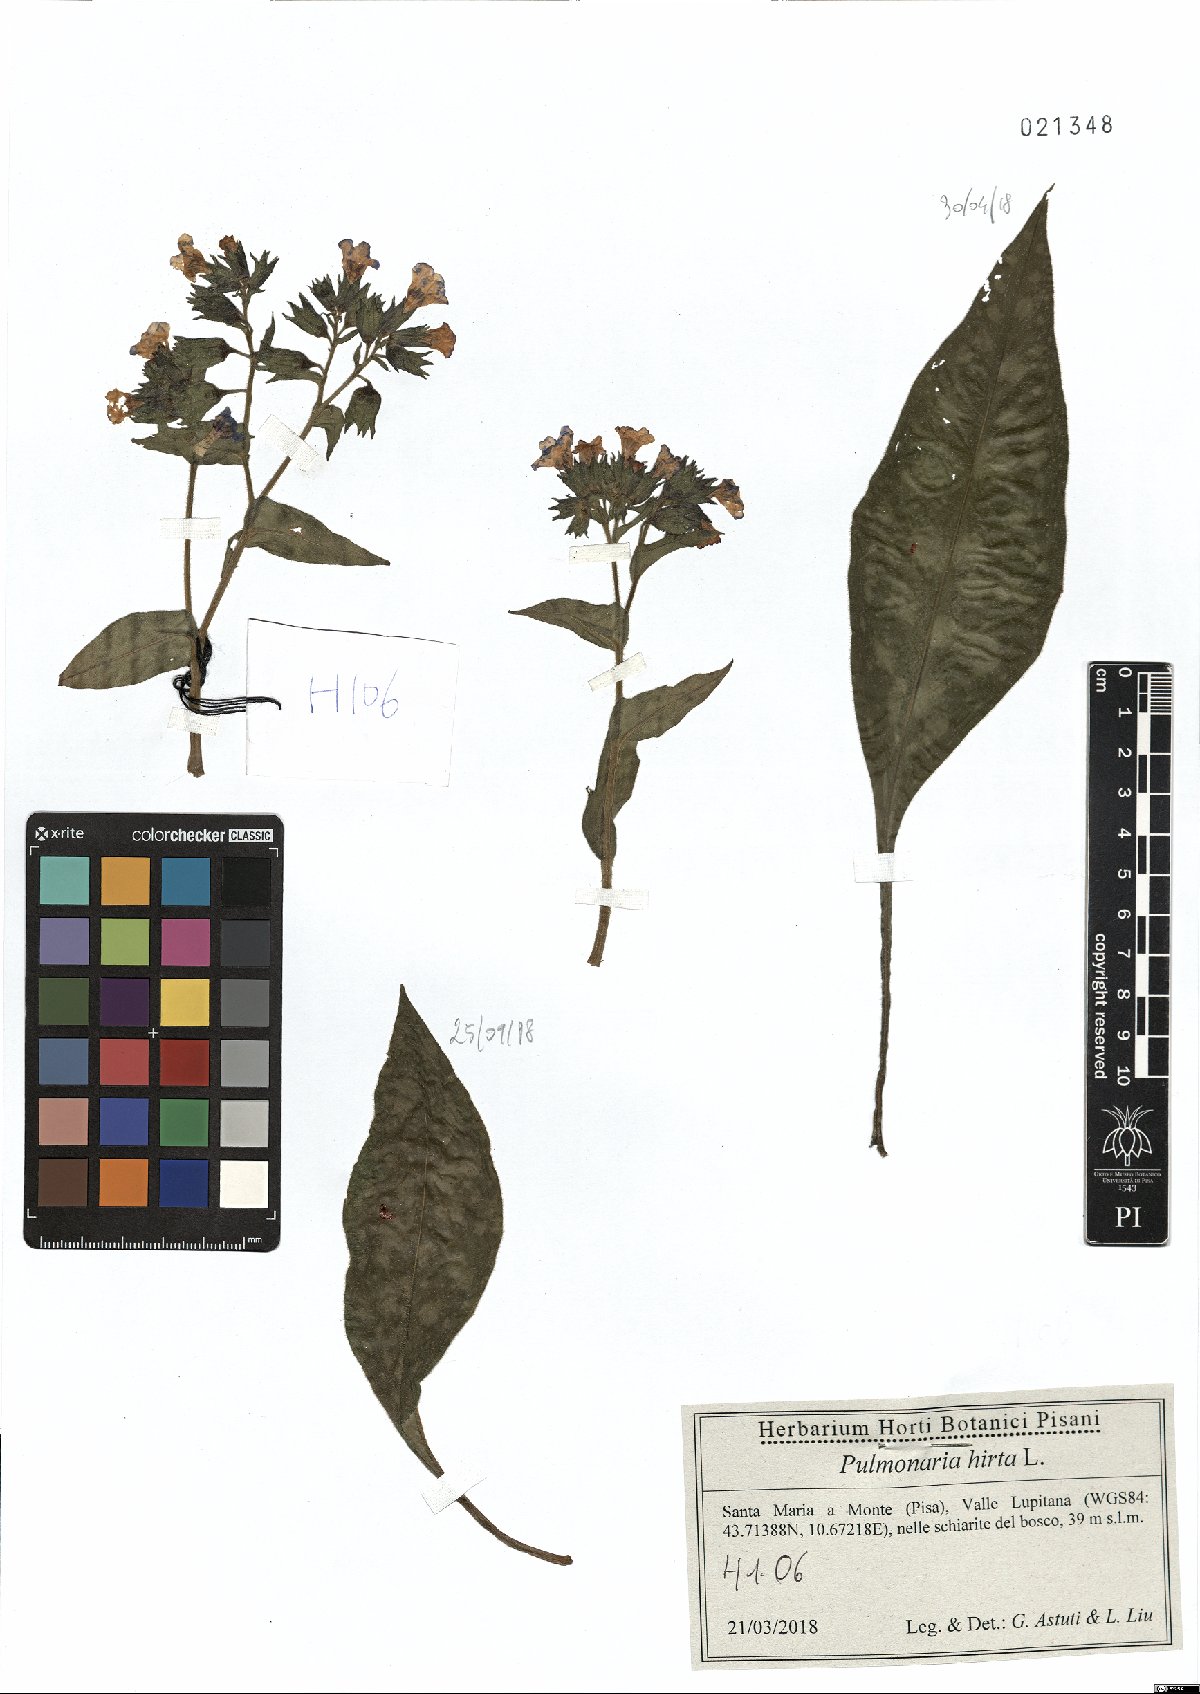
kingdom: Plantae
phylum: Tracheophyta
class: Magnoliopsida
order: Boraginales
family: Boraginaceae
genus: Pulmonaria
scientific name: Pulmonaria hirta
